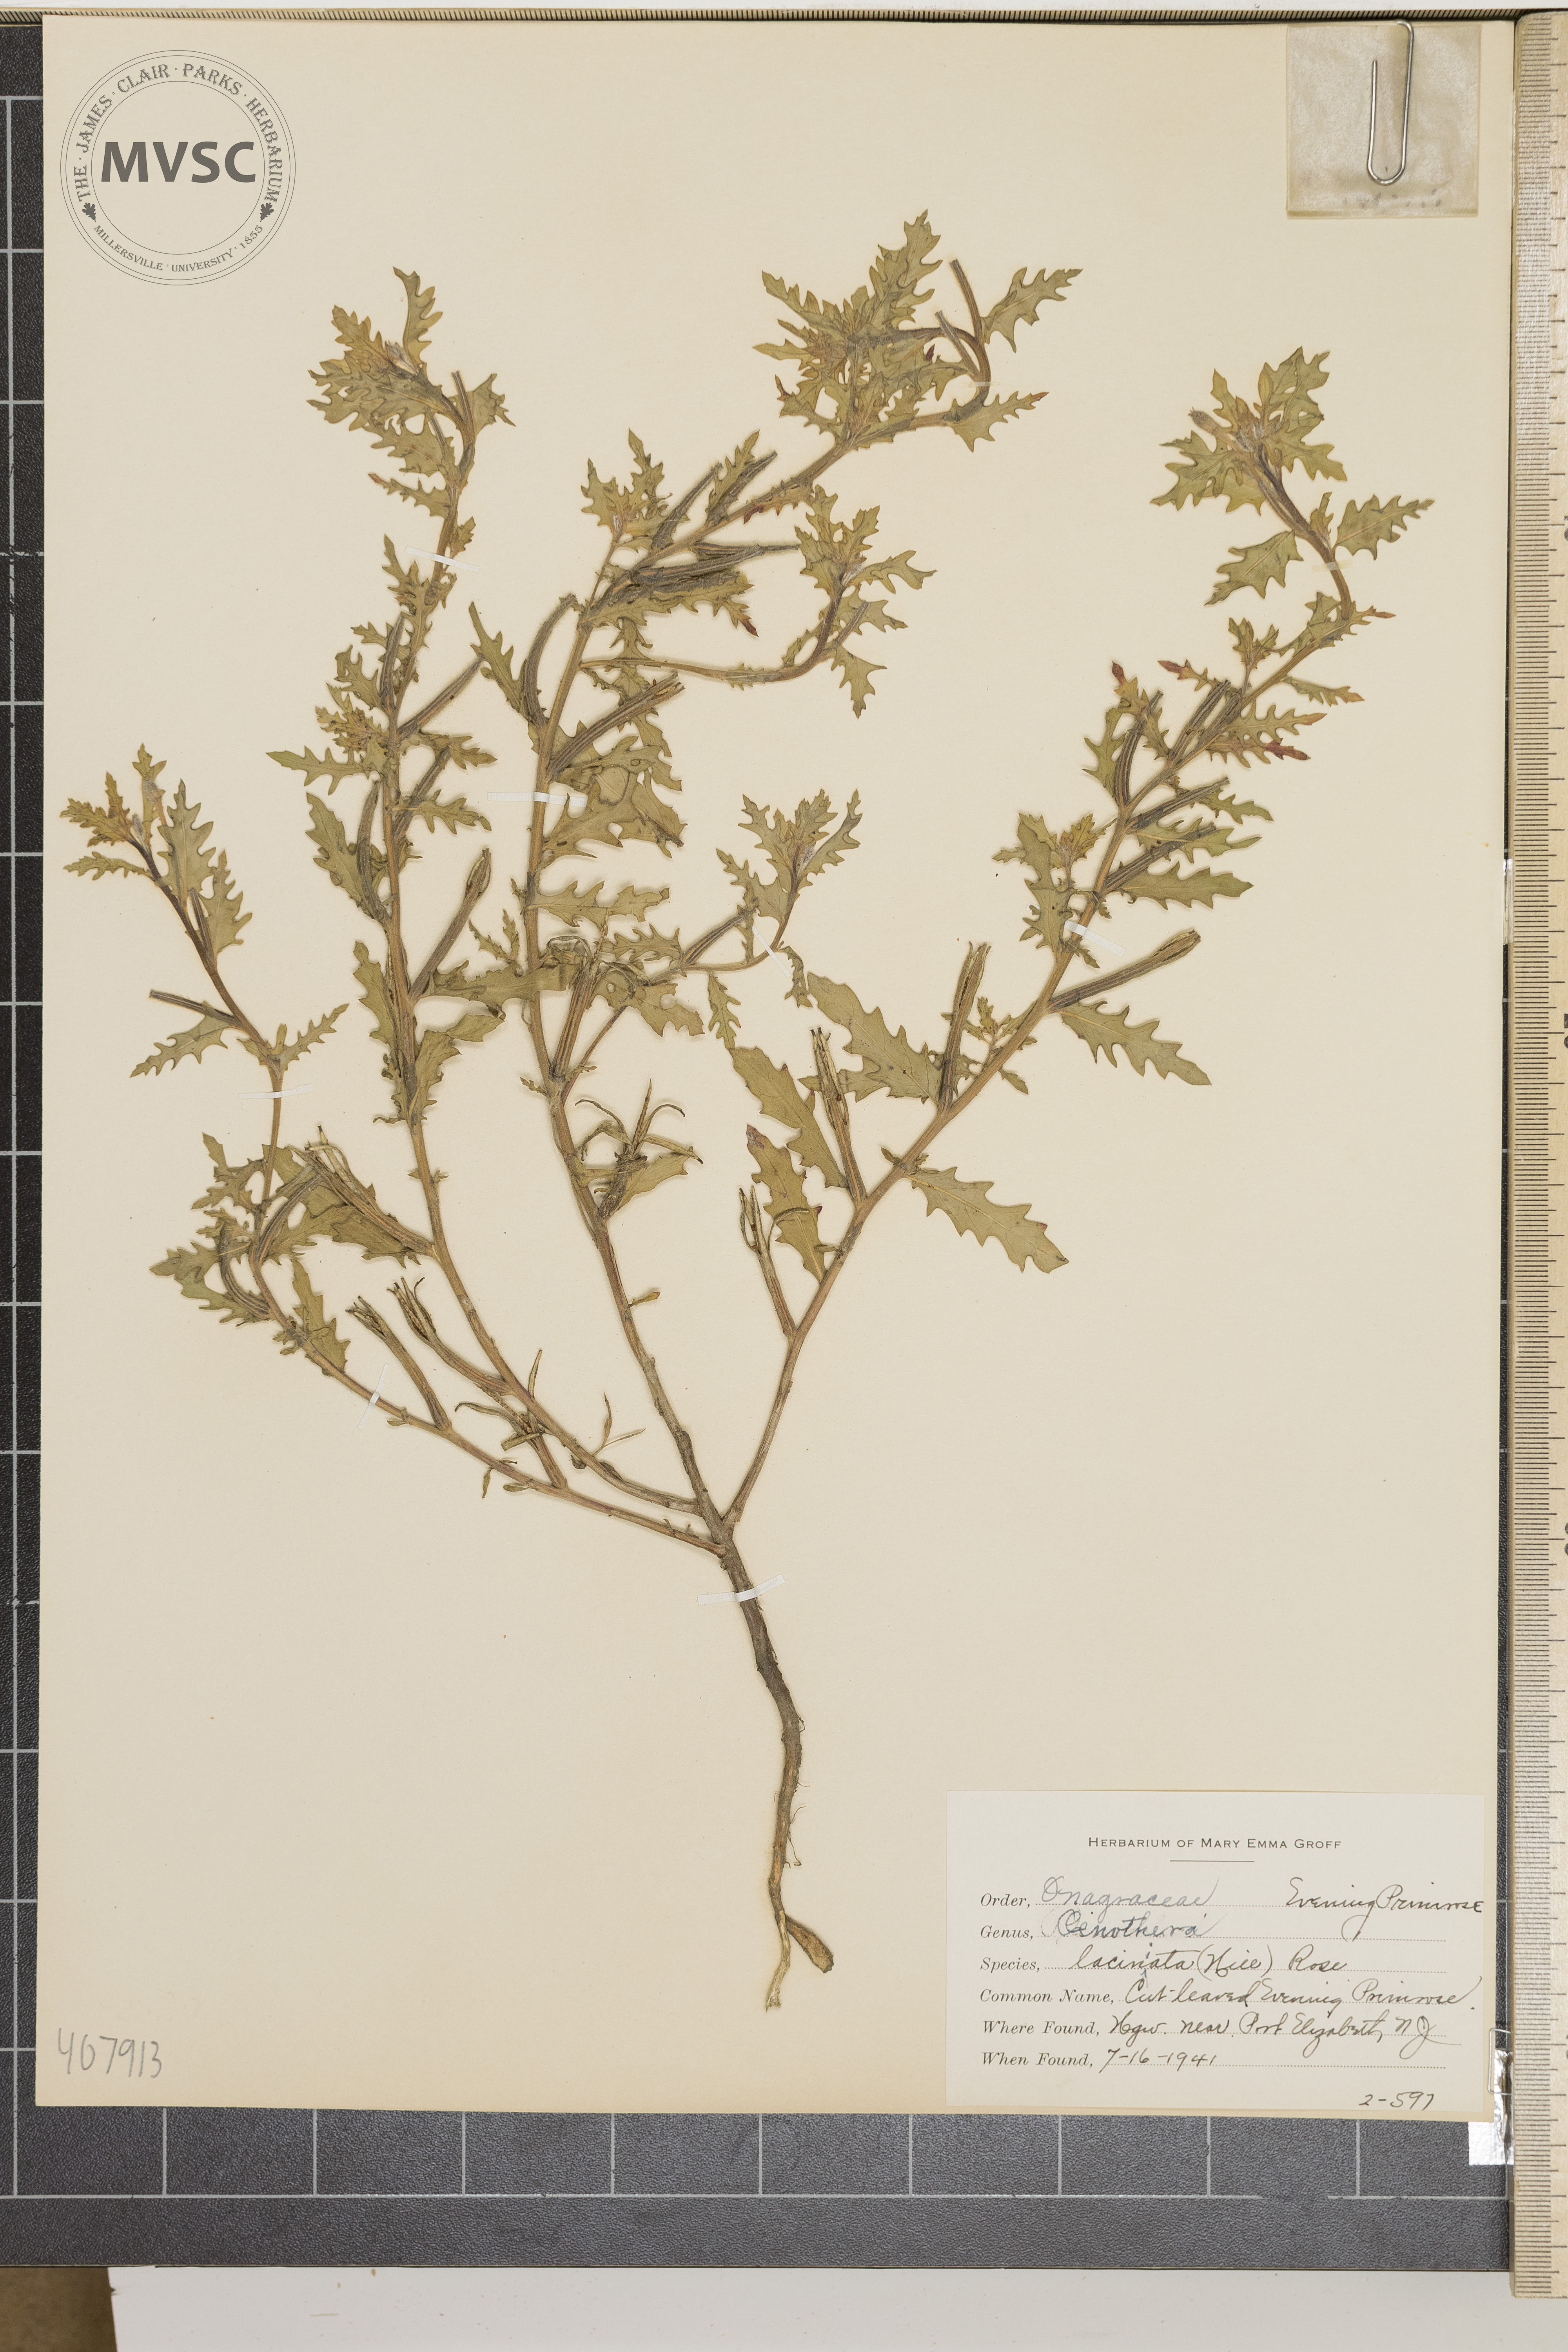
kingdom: Plantae
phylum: Tracheophyta
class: Magnoliopsida
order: Myrtales
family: Onagraceae
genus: Oenothera
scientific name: Oenothera laciniata
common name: Cut-leaved Evening-Primrose
